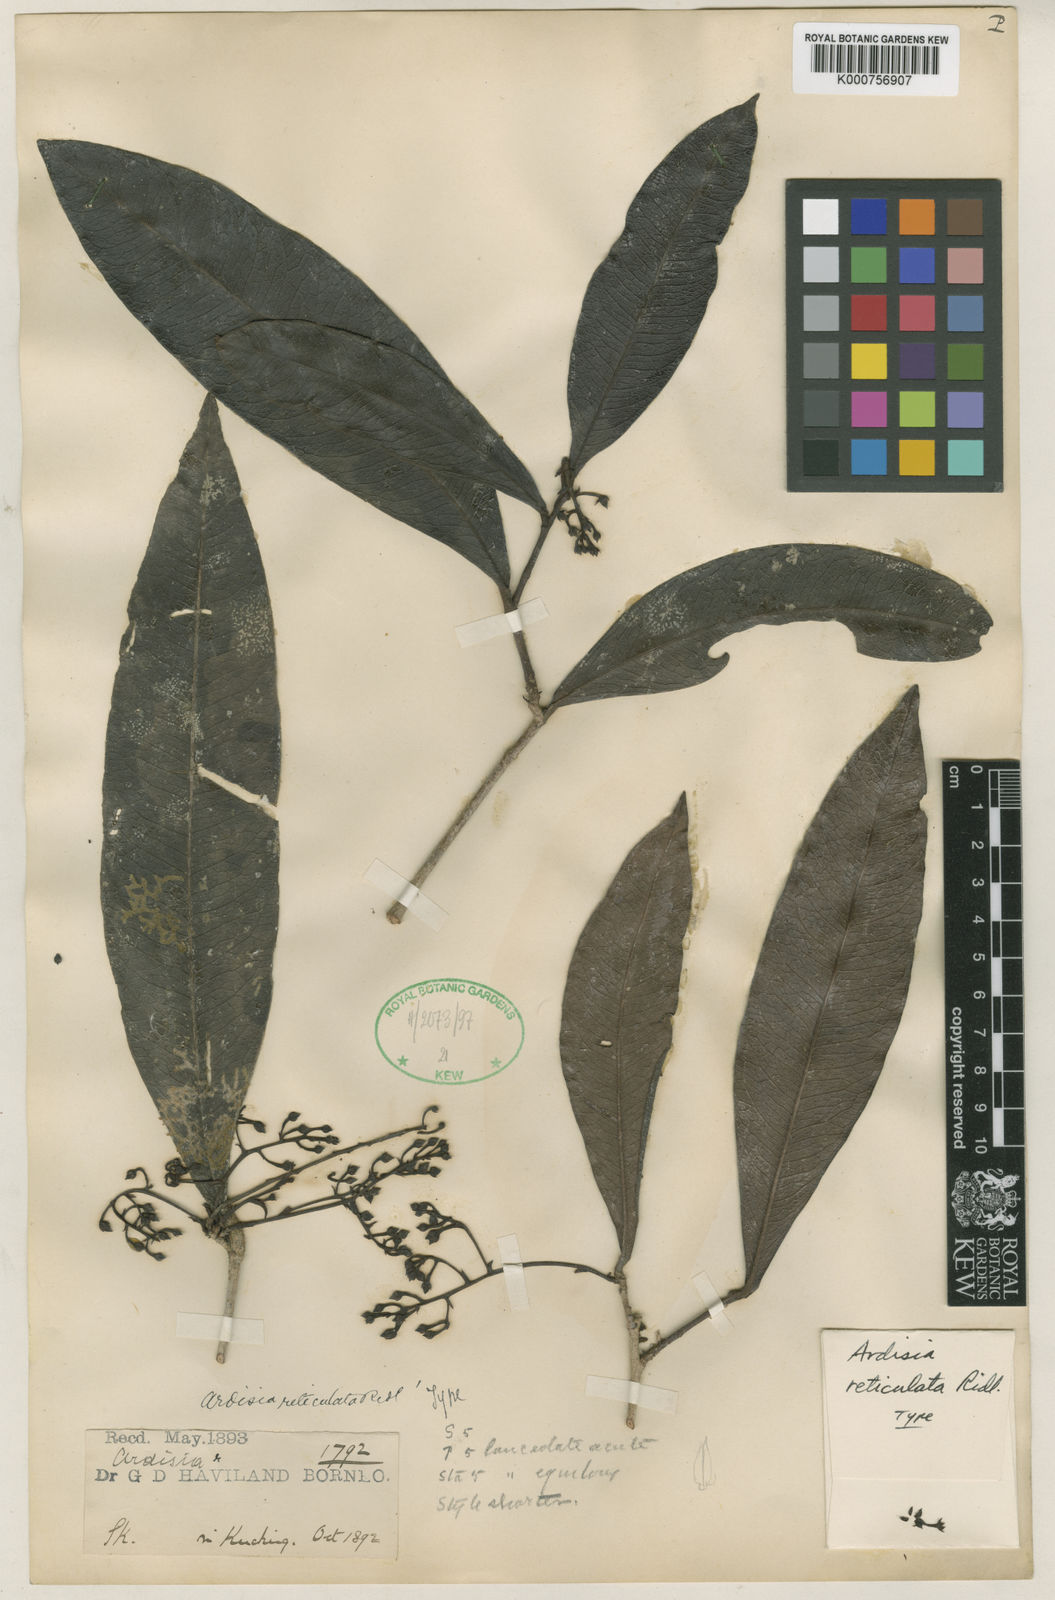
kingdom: Plantae
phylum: Tracheophyta
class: Magnoliopsida
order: Ericales
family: Primulaceae
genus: Ardisia
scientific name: Ardisia
